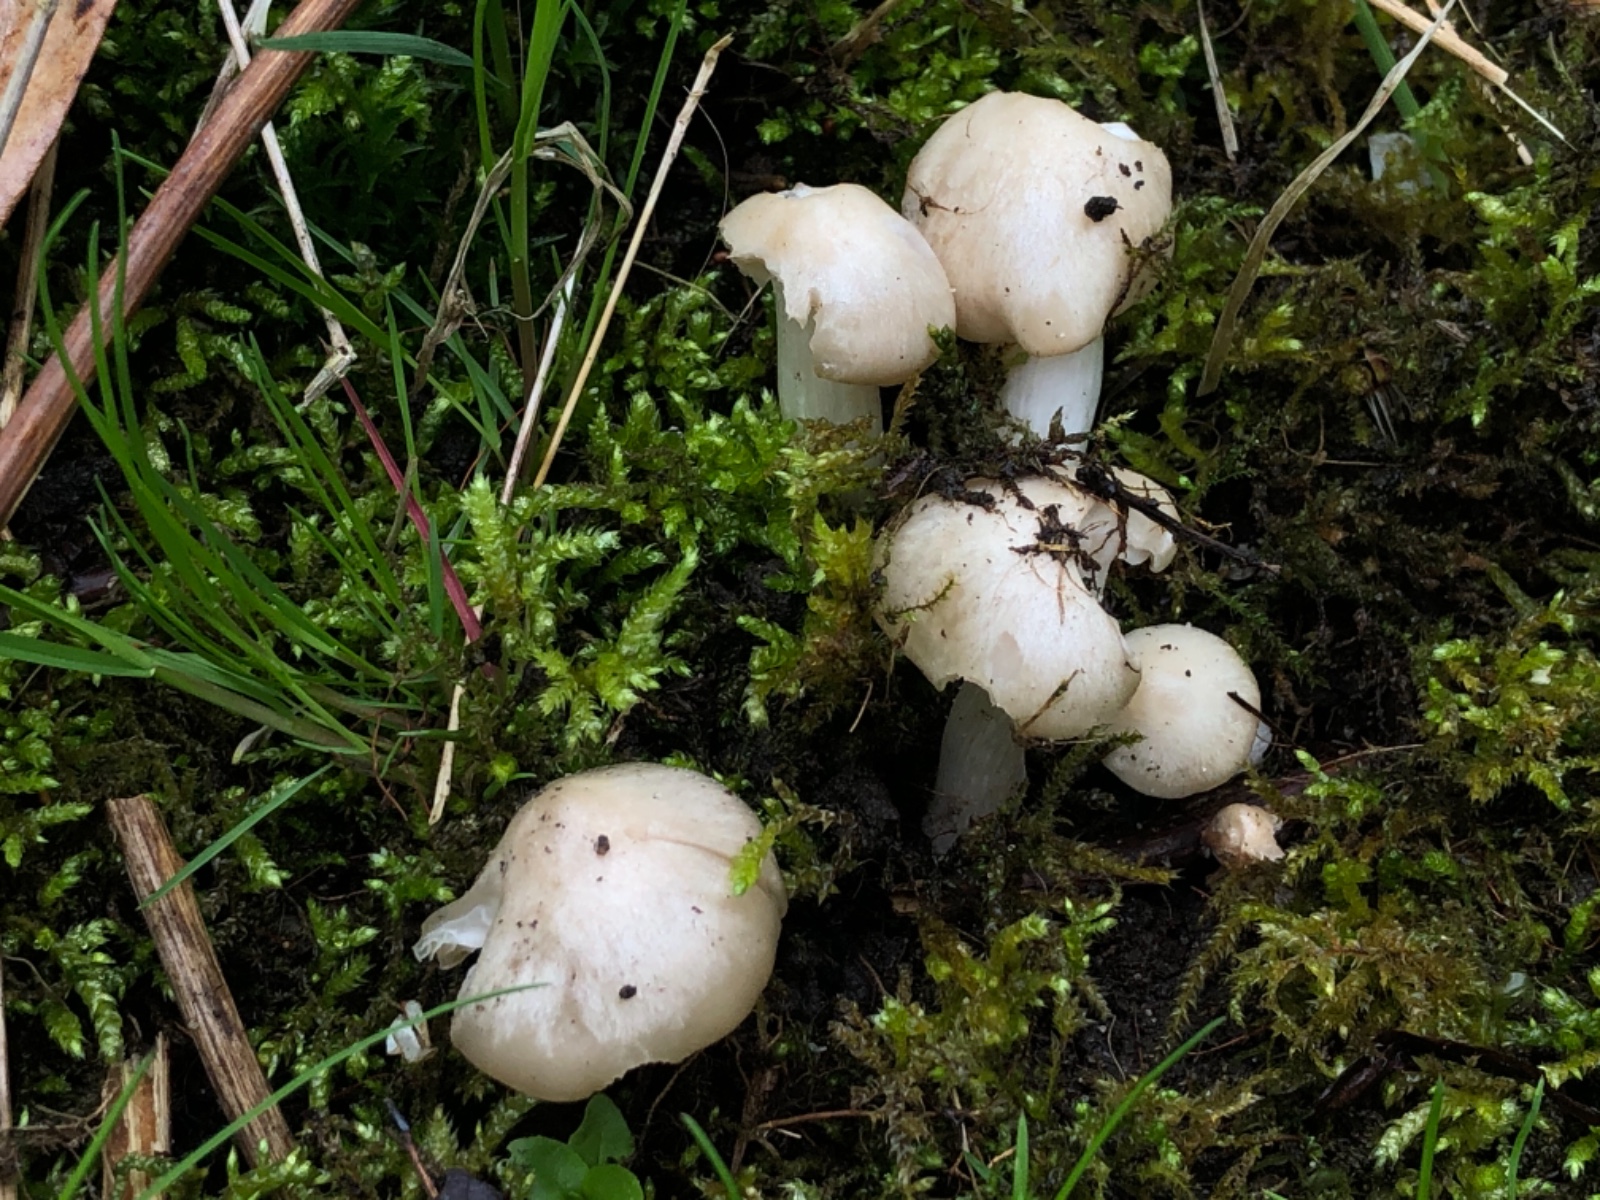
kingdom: Fungi
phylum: Basidiomycota
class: Agaricomycetes
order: Agaricales
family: Entolomataceae
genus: Entoloma
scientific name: Entoloma sepium
